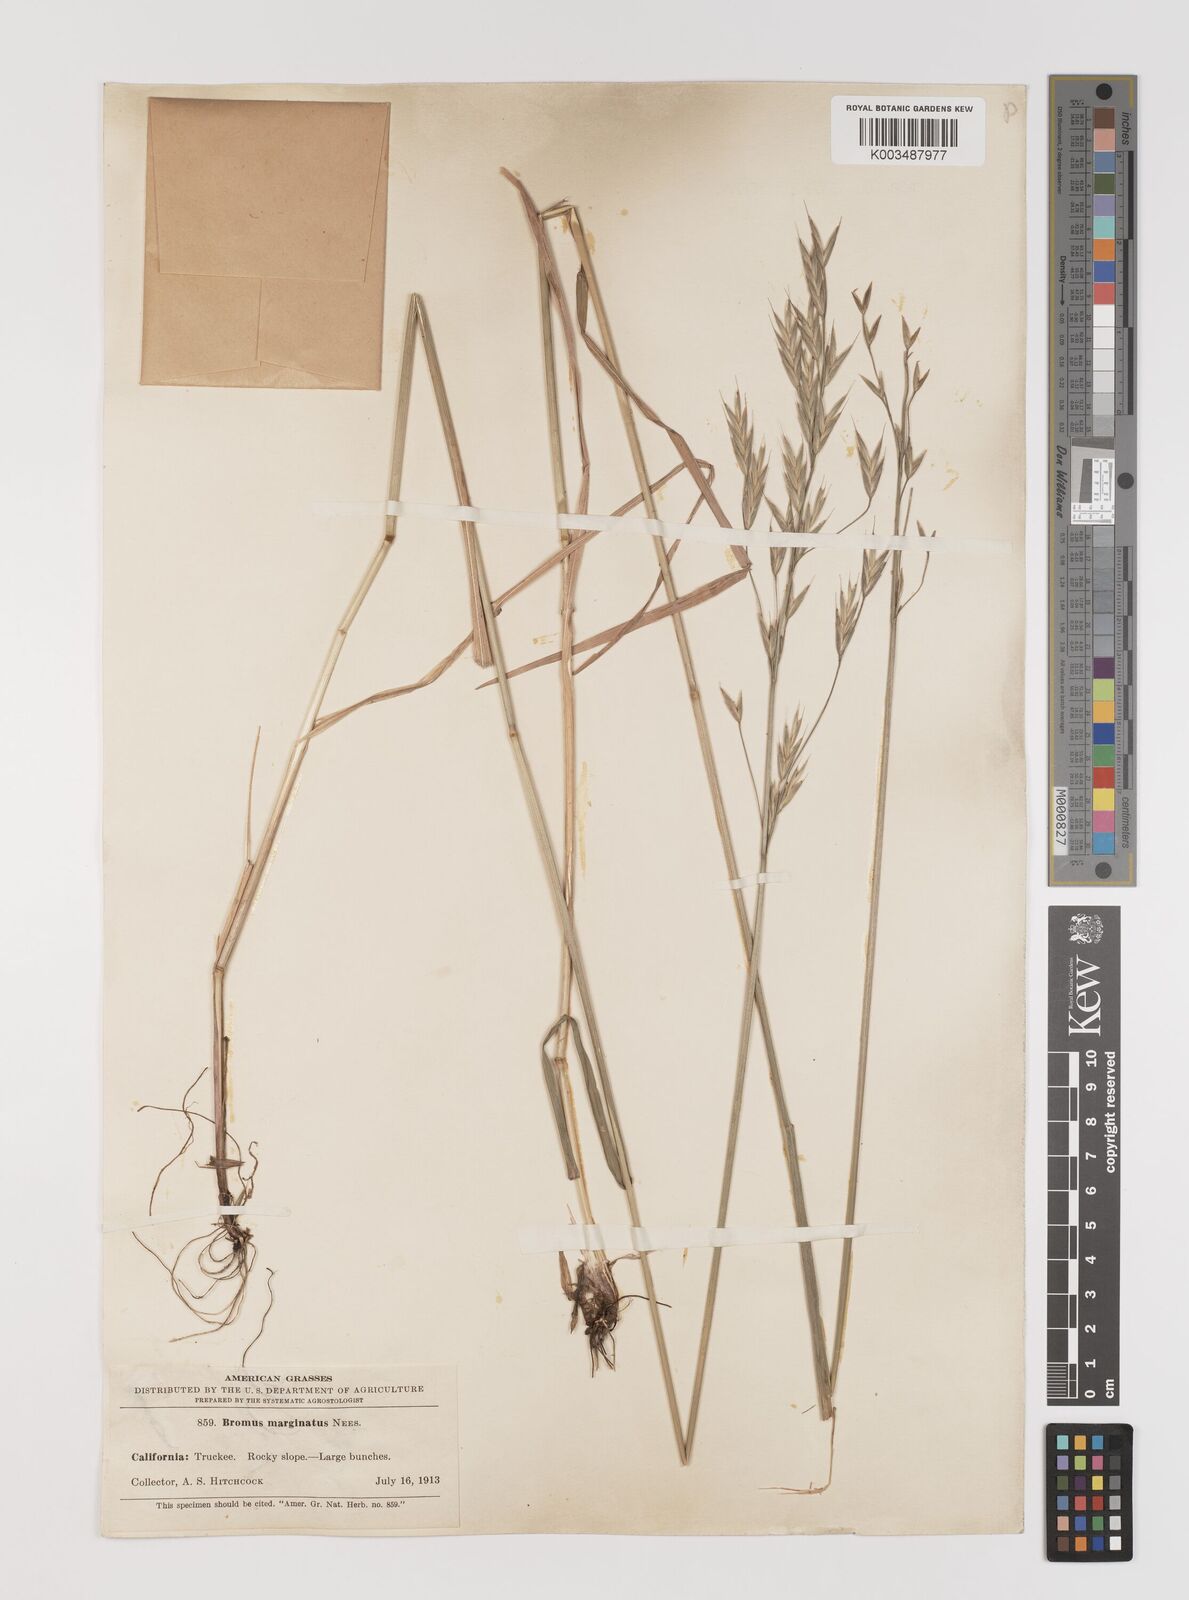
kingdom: Plantae
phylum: Tracheophyta
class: Liliopsida
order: Poales
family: Poaceae
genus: Bromus
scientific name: Bromus marginatus
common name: Western brome
